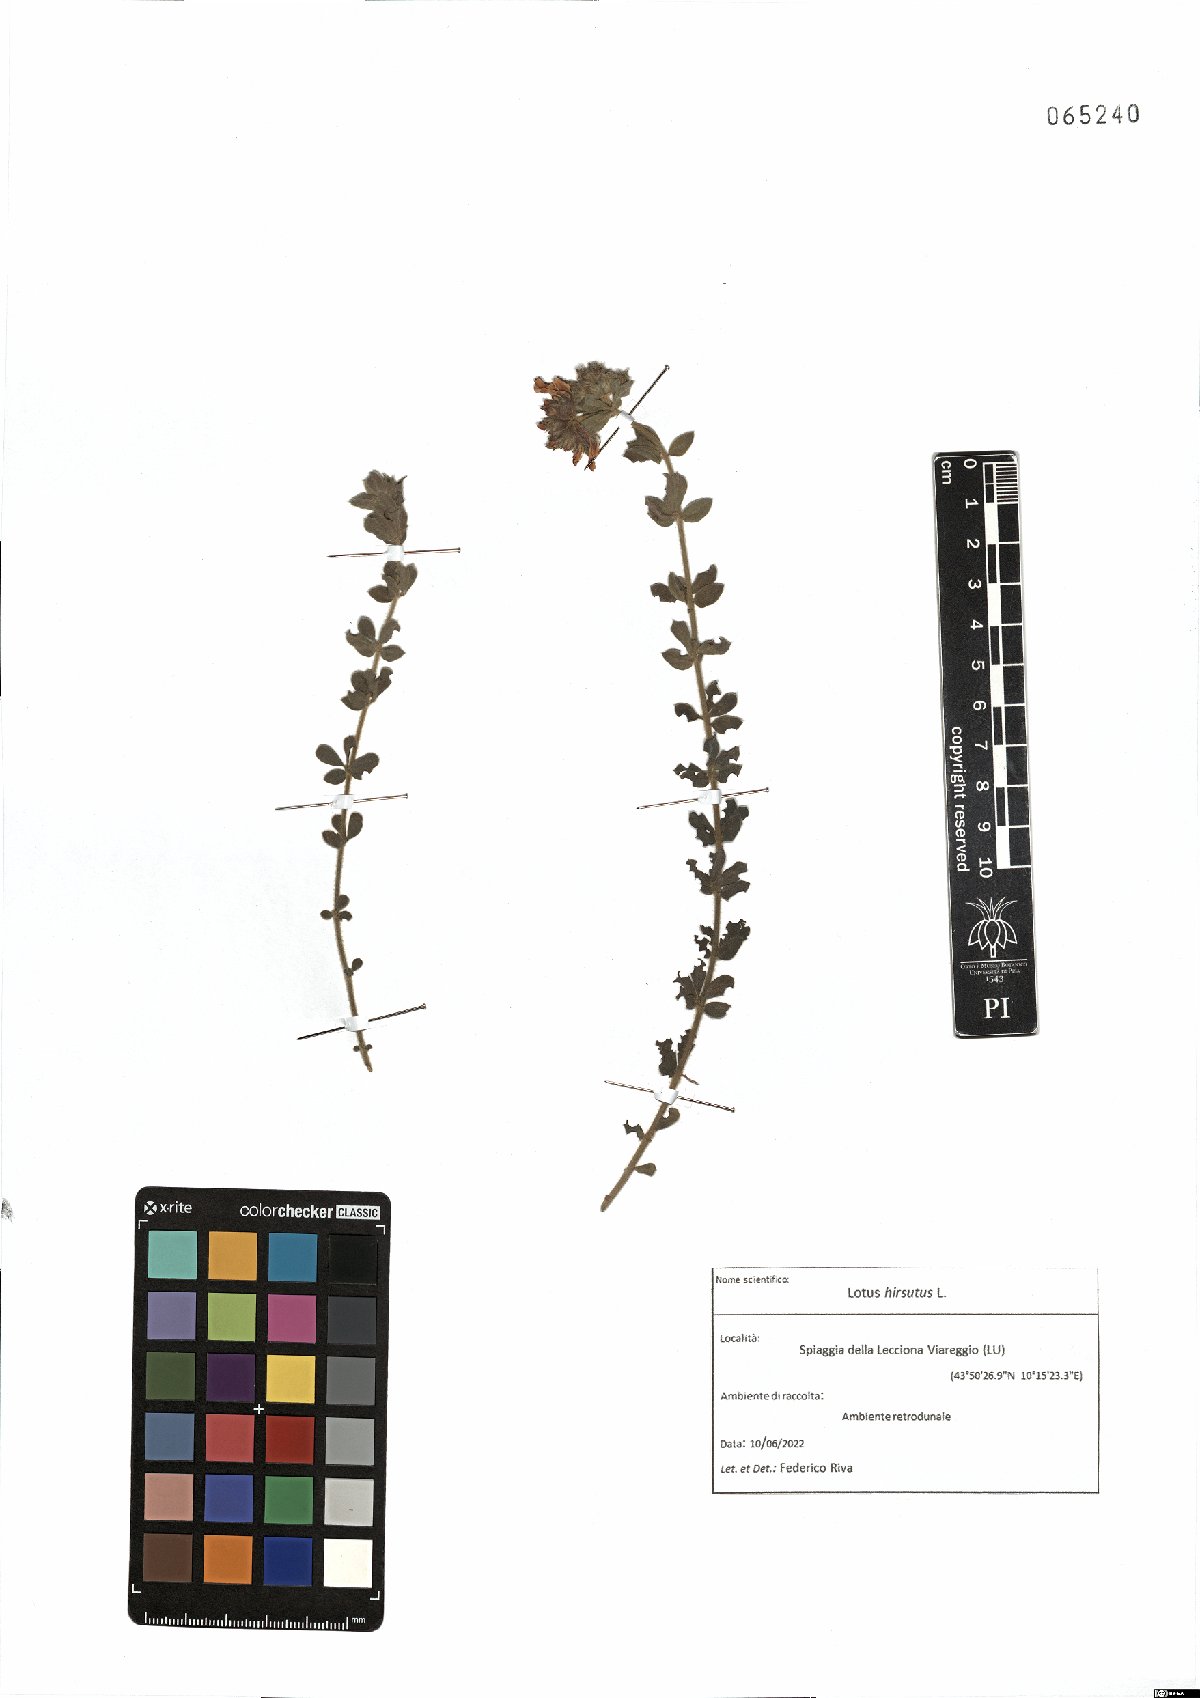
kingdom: Plantae
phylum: Tracheophyta
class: Magnoliopsida
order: Fabales
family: Fabaceae
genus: Lotus
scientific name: Lotus hirsutus
